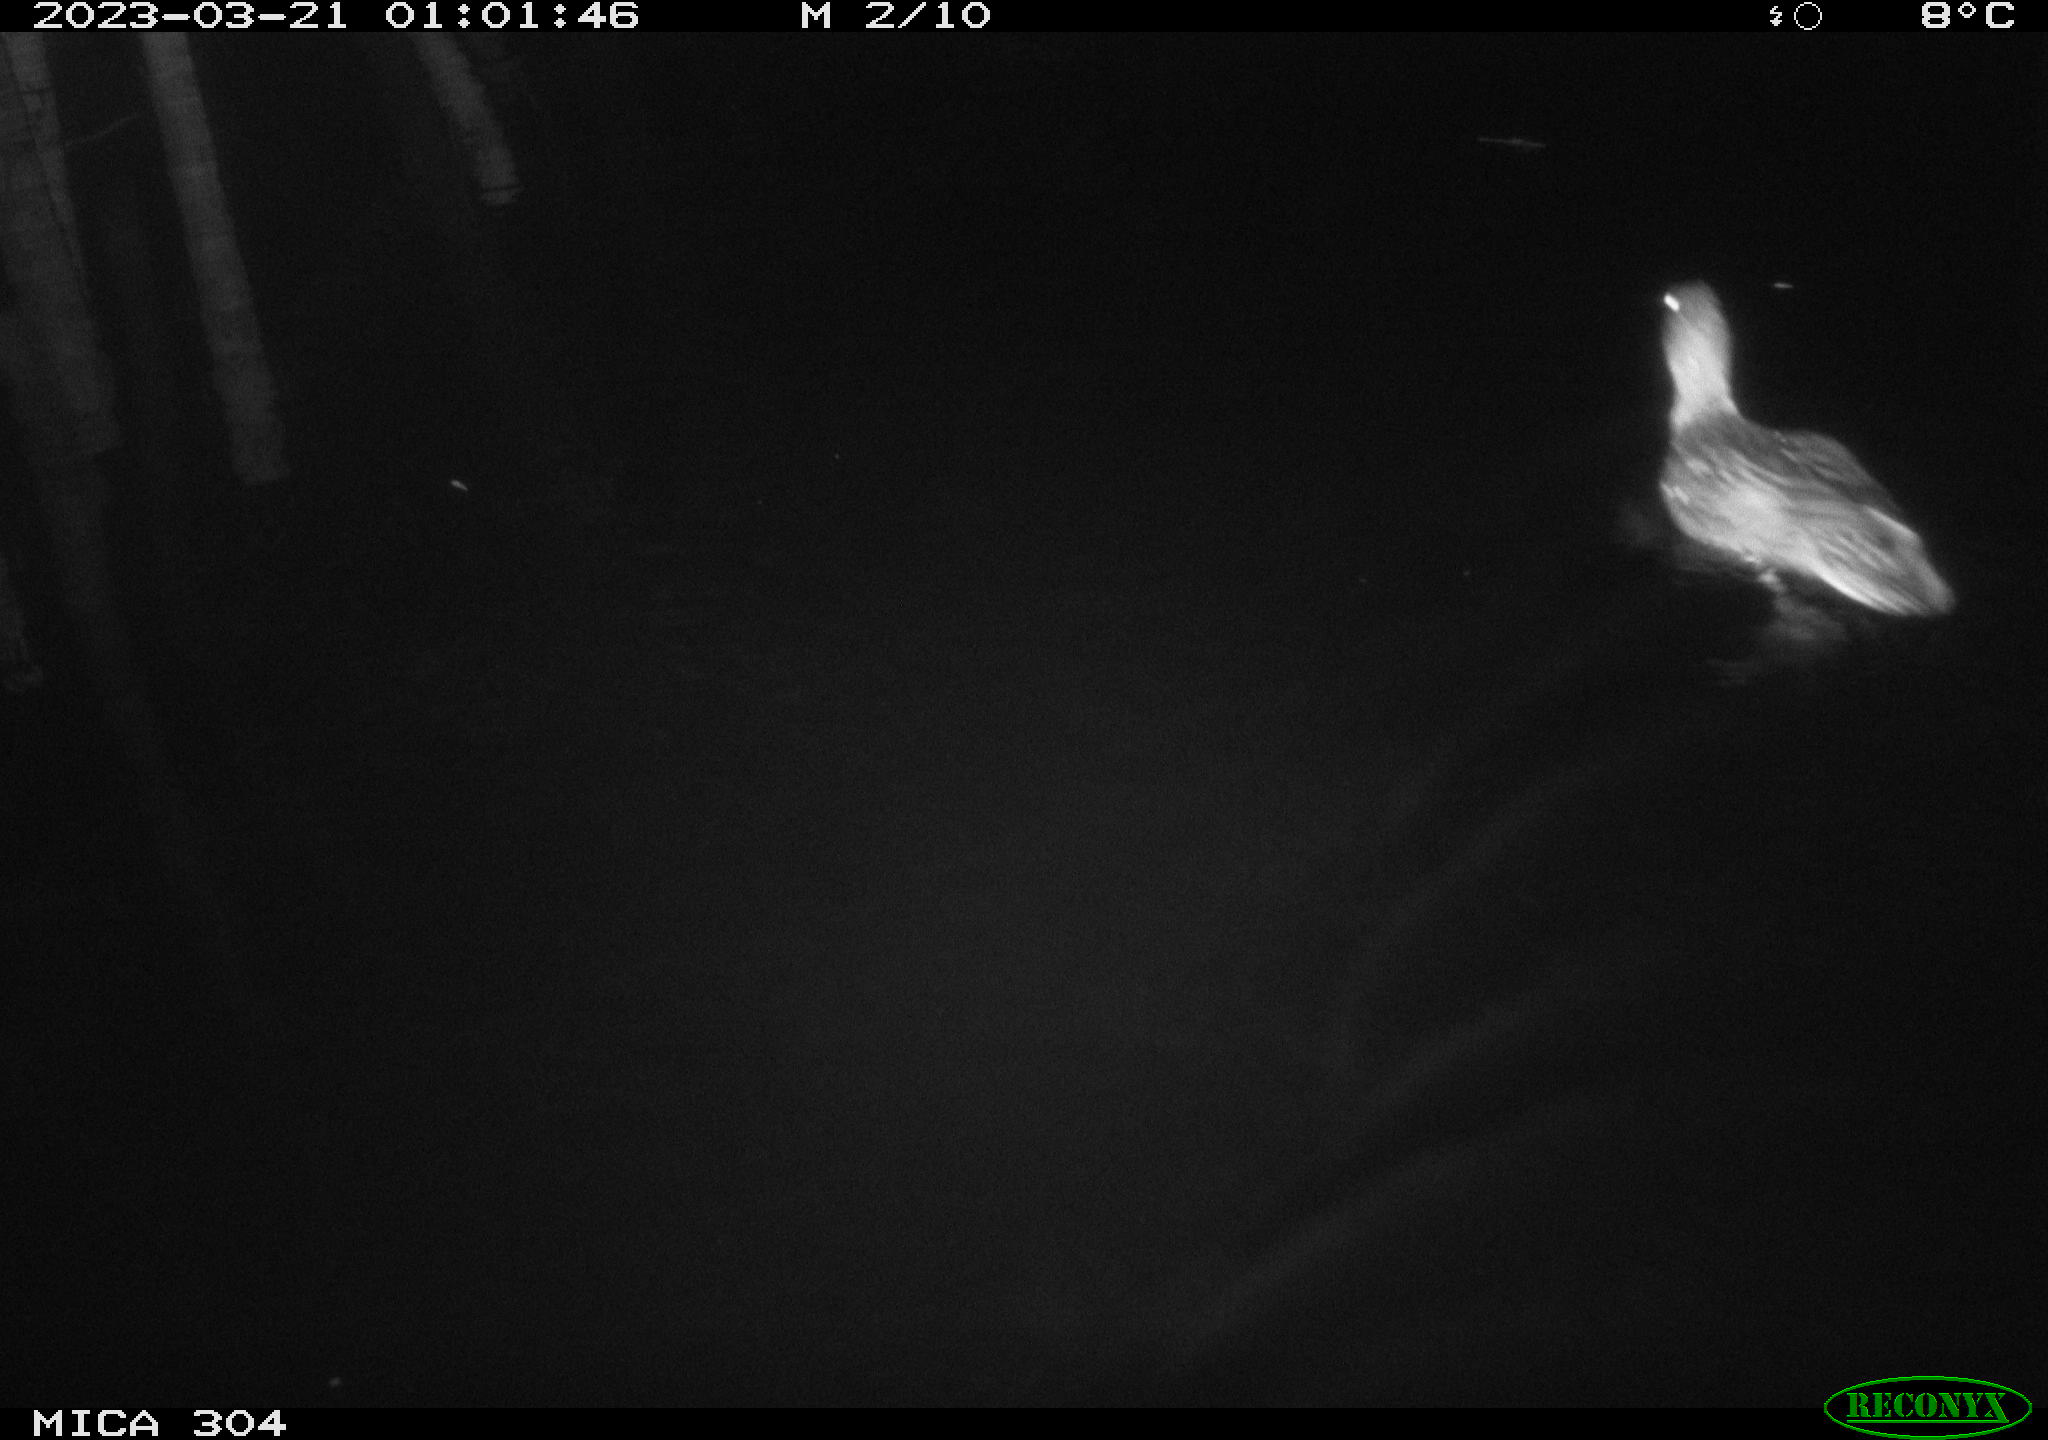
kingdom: Animalia
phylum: Chordata
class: Aves
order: Anseriformes
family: Anatidae
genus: Anas
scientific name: Anas
